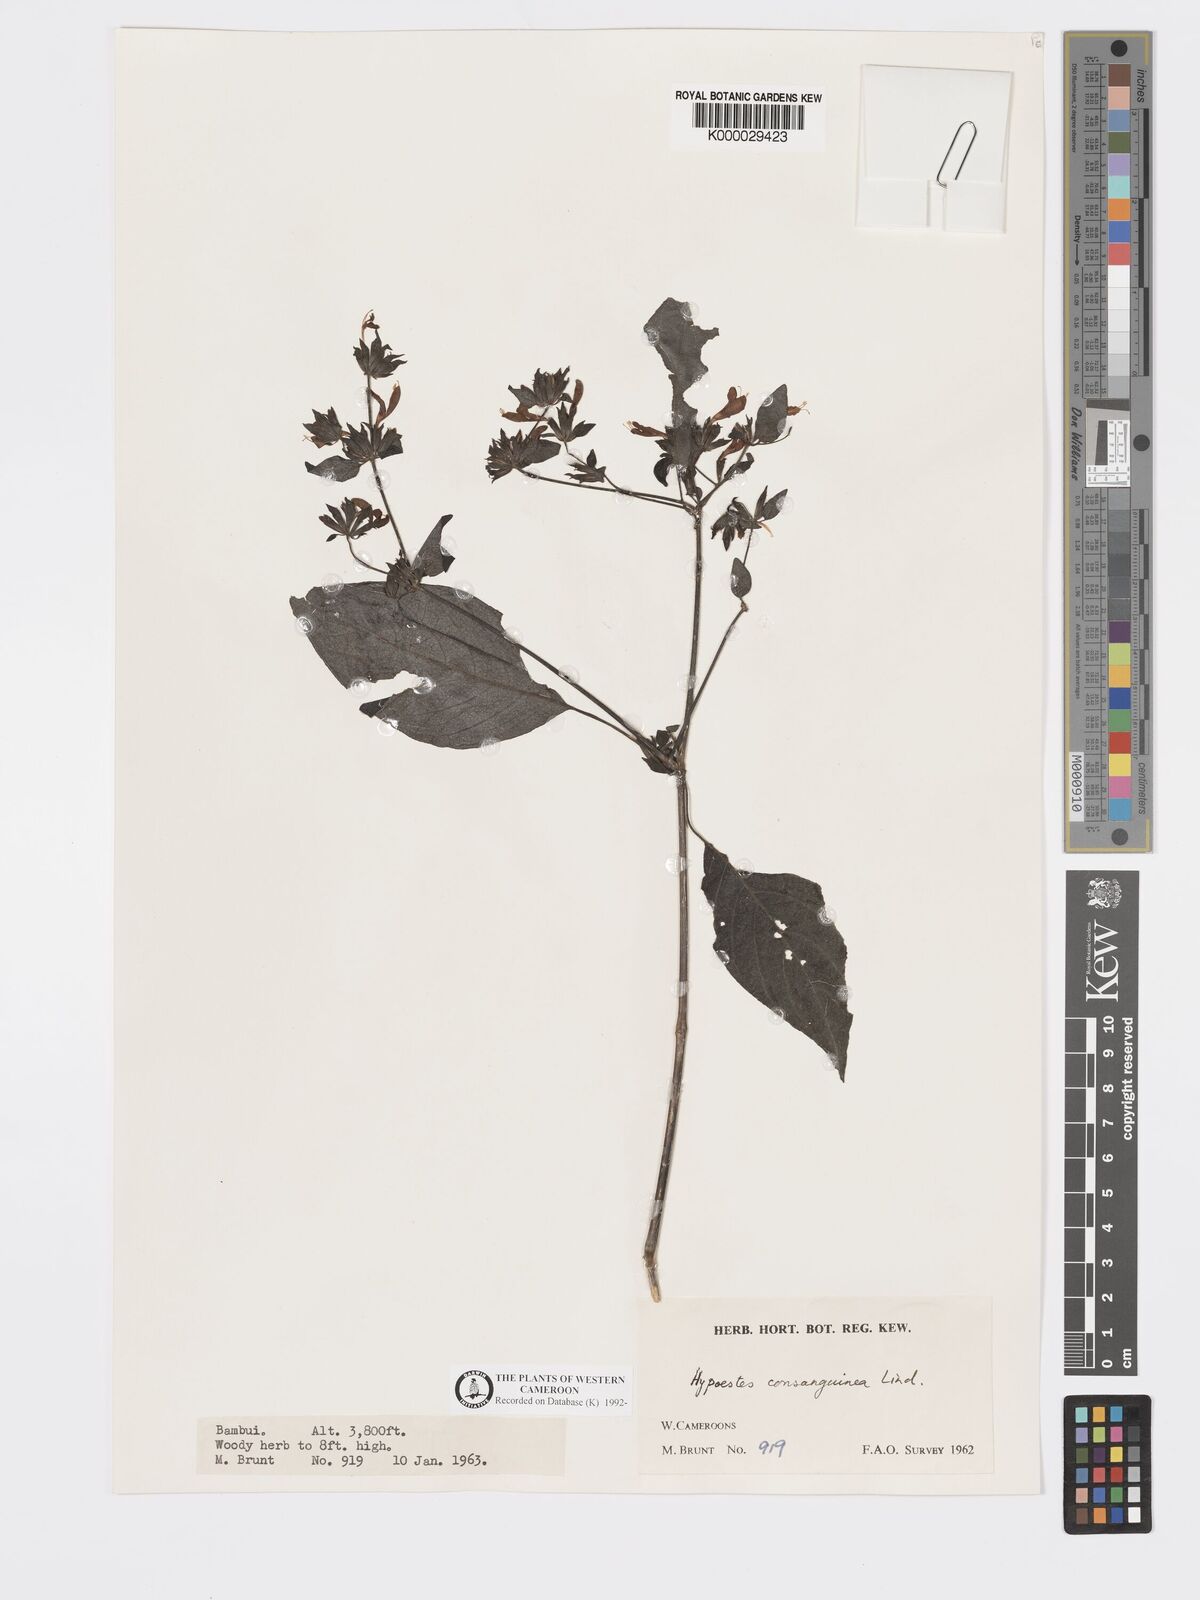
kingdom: Plantae
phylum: Tracheophyta
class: Magnoliopsida
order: Lamiales
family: Acanthaceae
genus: Hypoestes
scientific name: Hypoestes rosea
